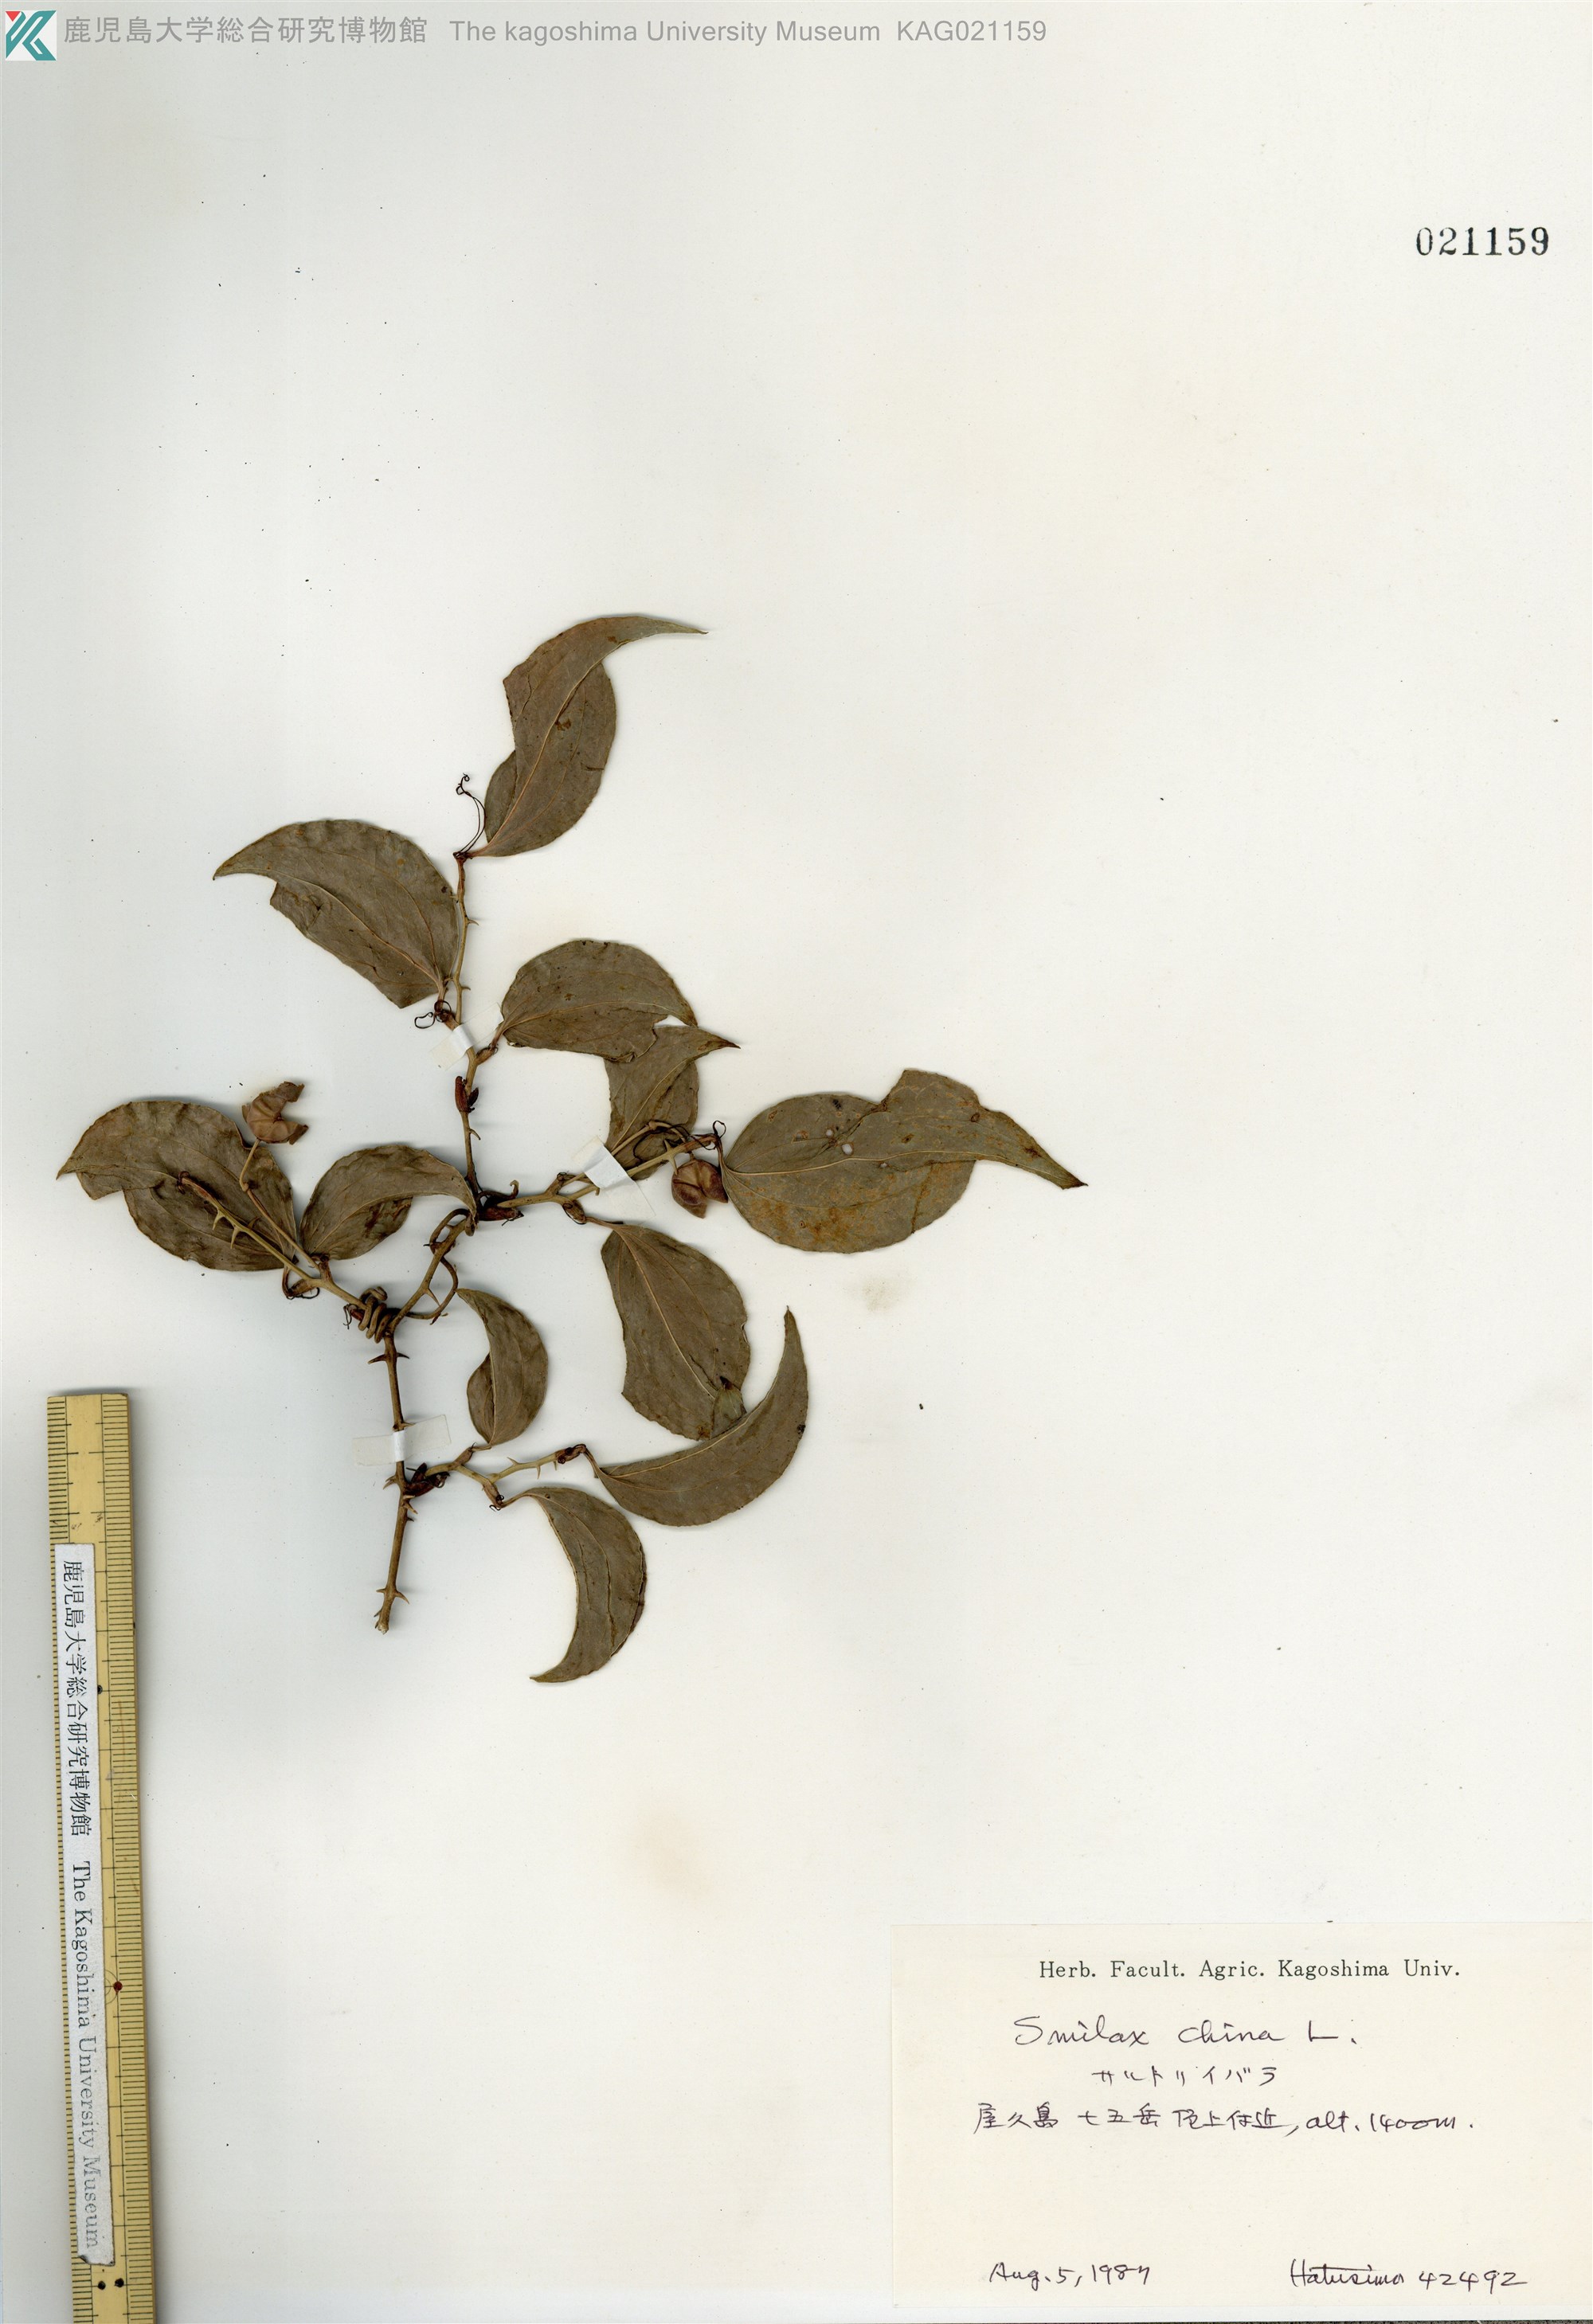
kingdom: Plantae
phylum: Tracheophyta
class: Liliopsida
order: Liliales
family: Smilacaceae
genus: Smilax
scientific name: Smilax china
